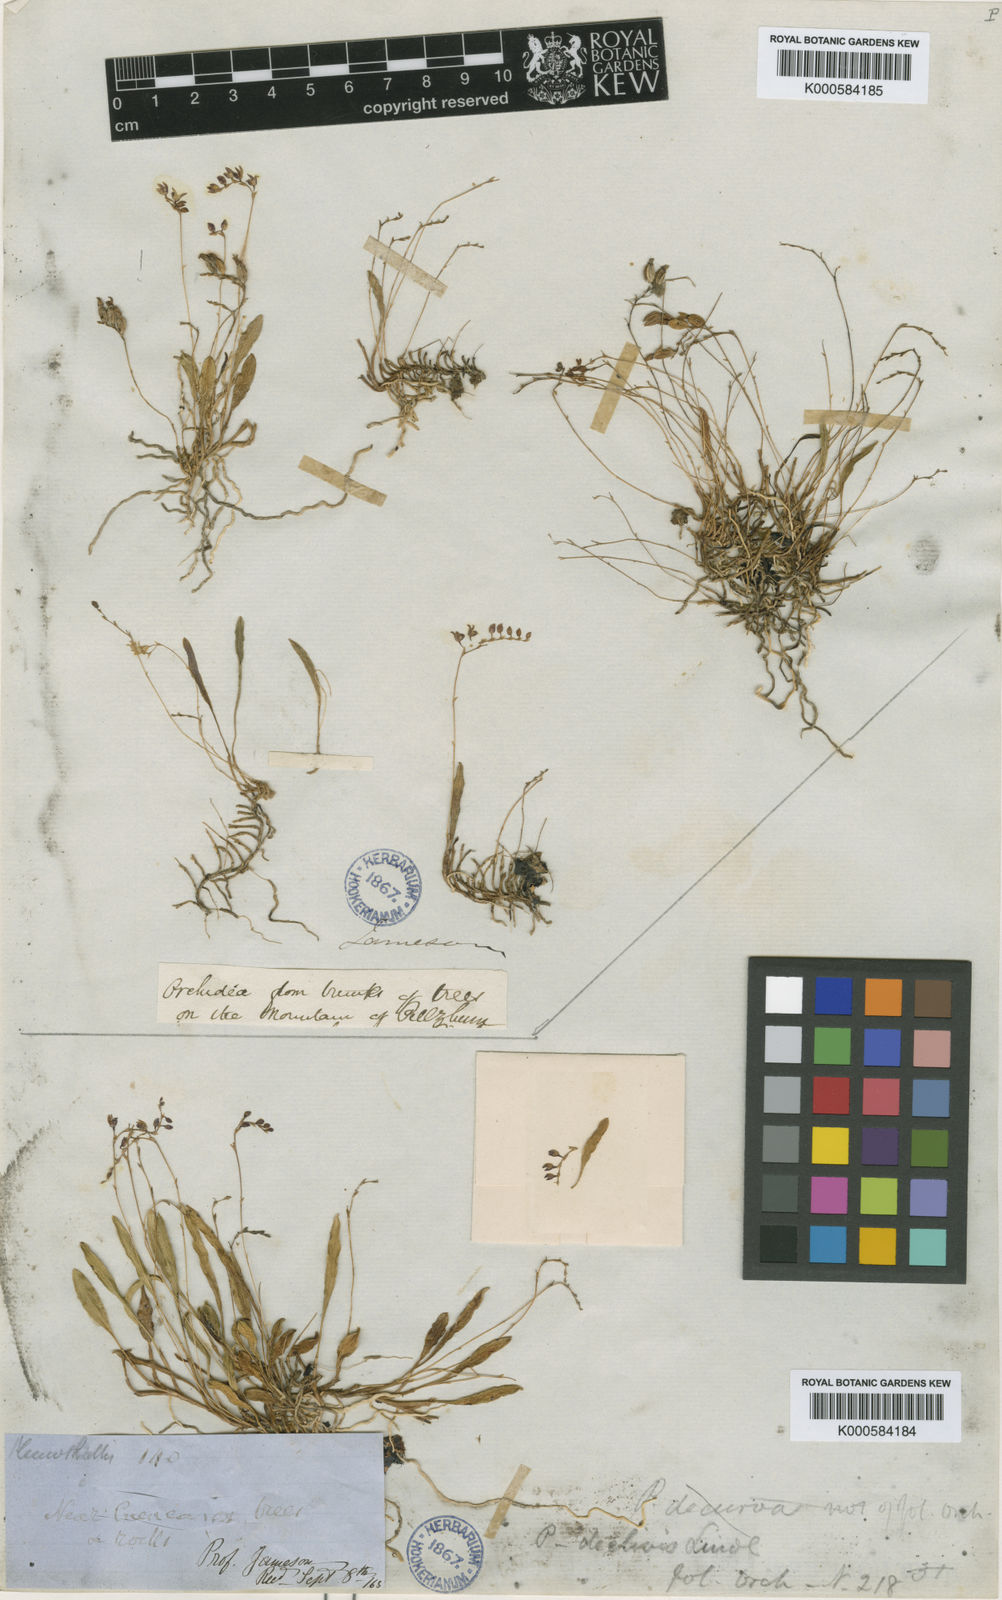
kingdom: Plantae
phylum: Tracheophyta
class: Liliopsida
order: Asparagales
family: Orchidaceae
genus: Stelis
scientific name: Stelis declivis
